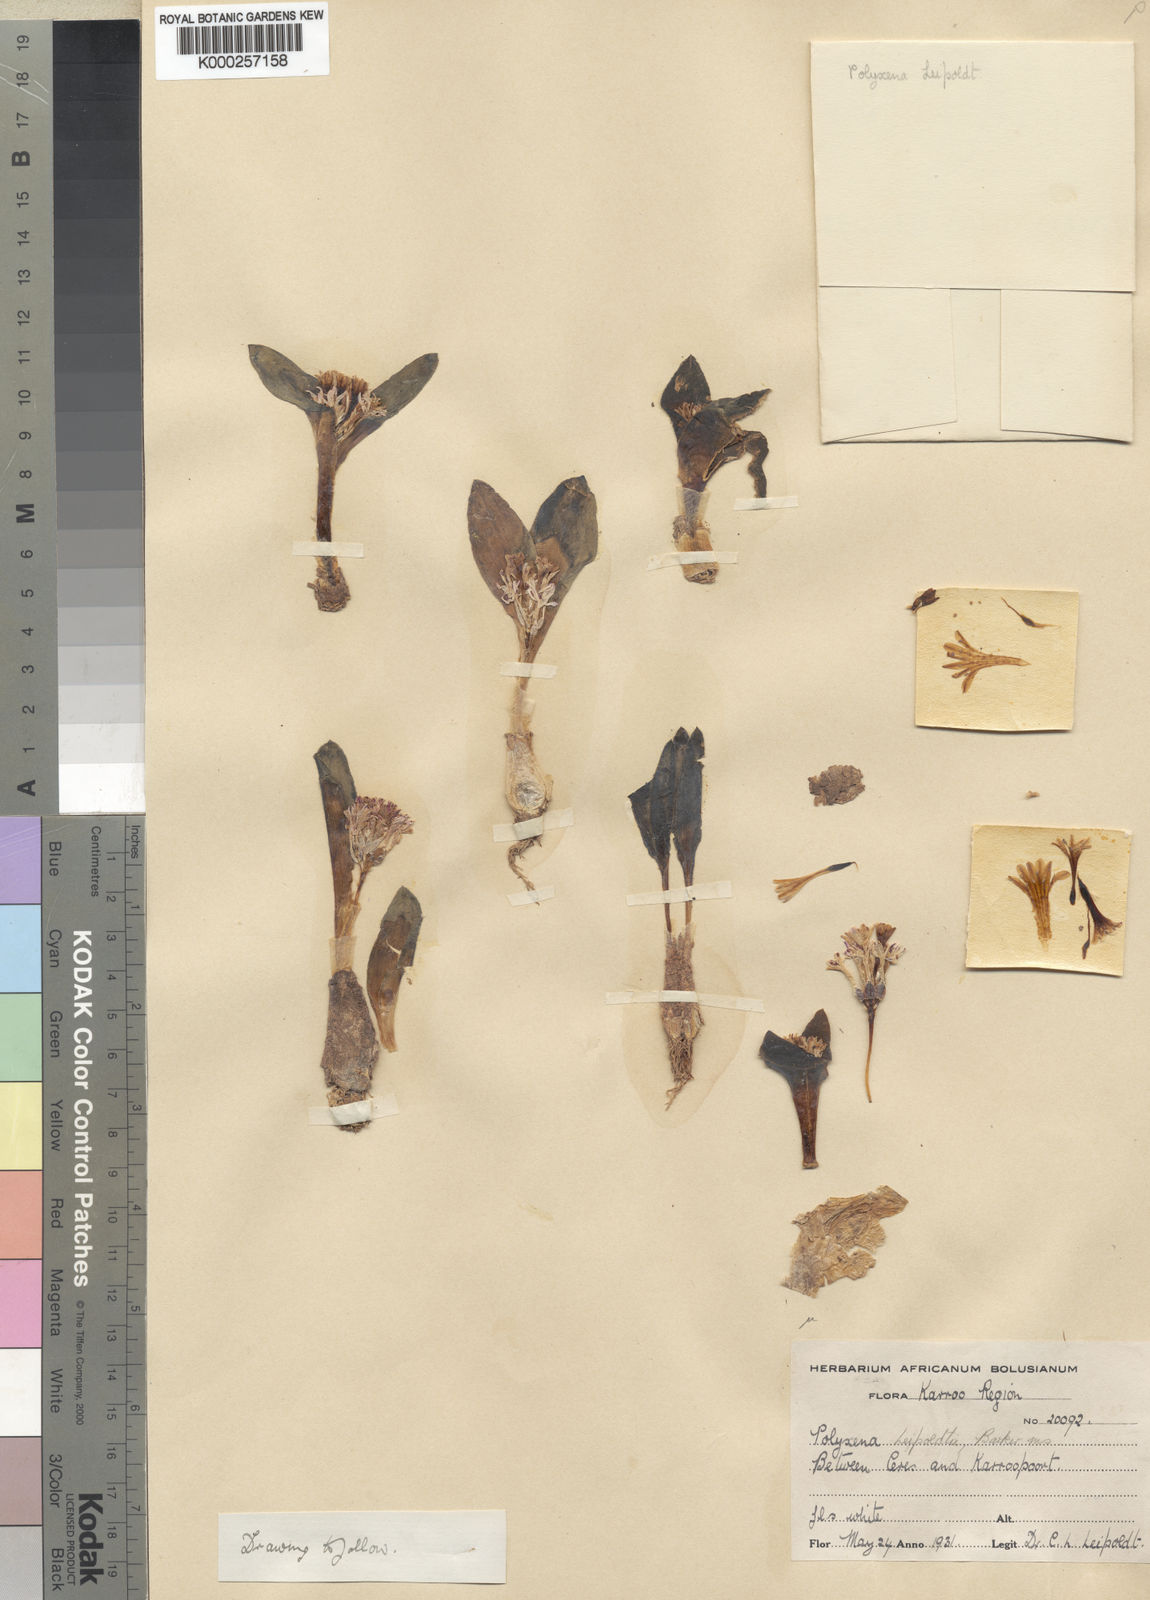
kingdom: Plantae
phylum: Tracheophyta
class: Liliopsida
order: Asparagales
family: Asparagaceae
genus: Lachenalia
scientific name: Lachenalia
